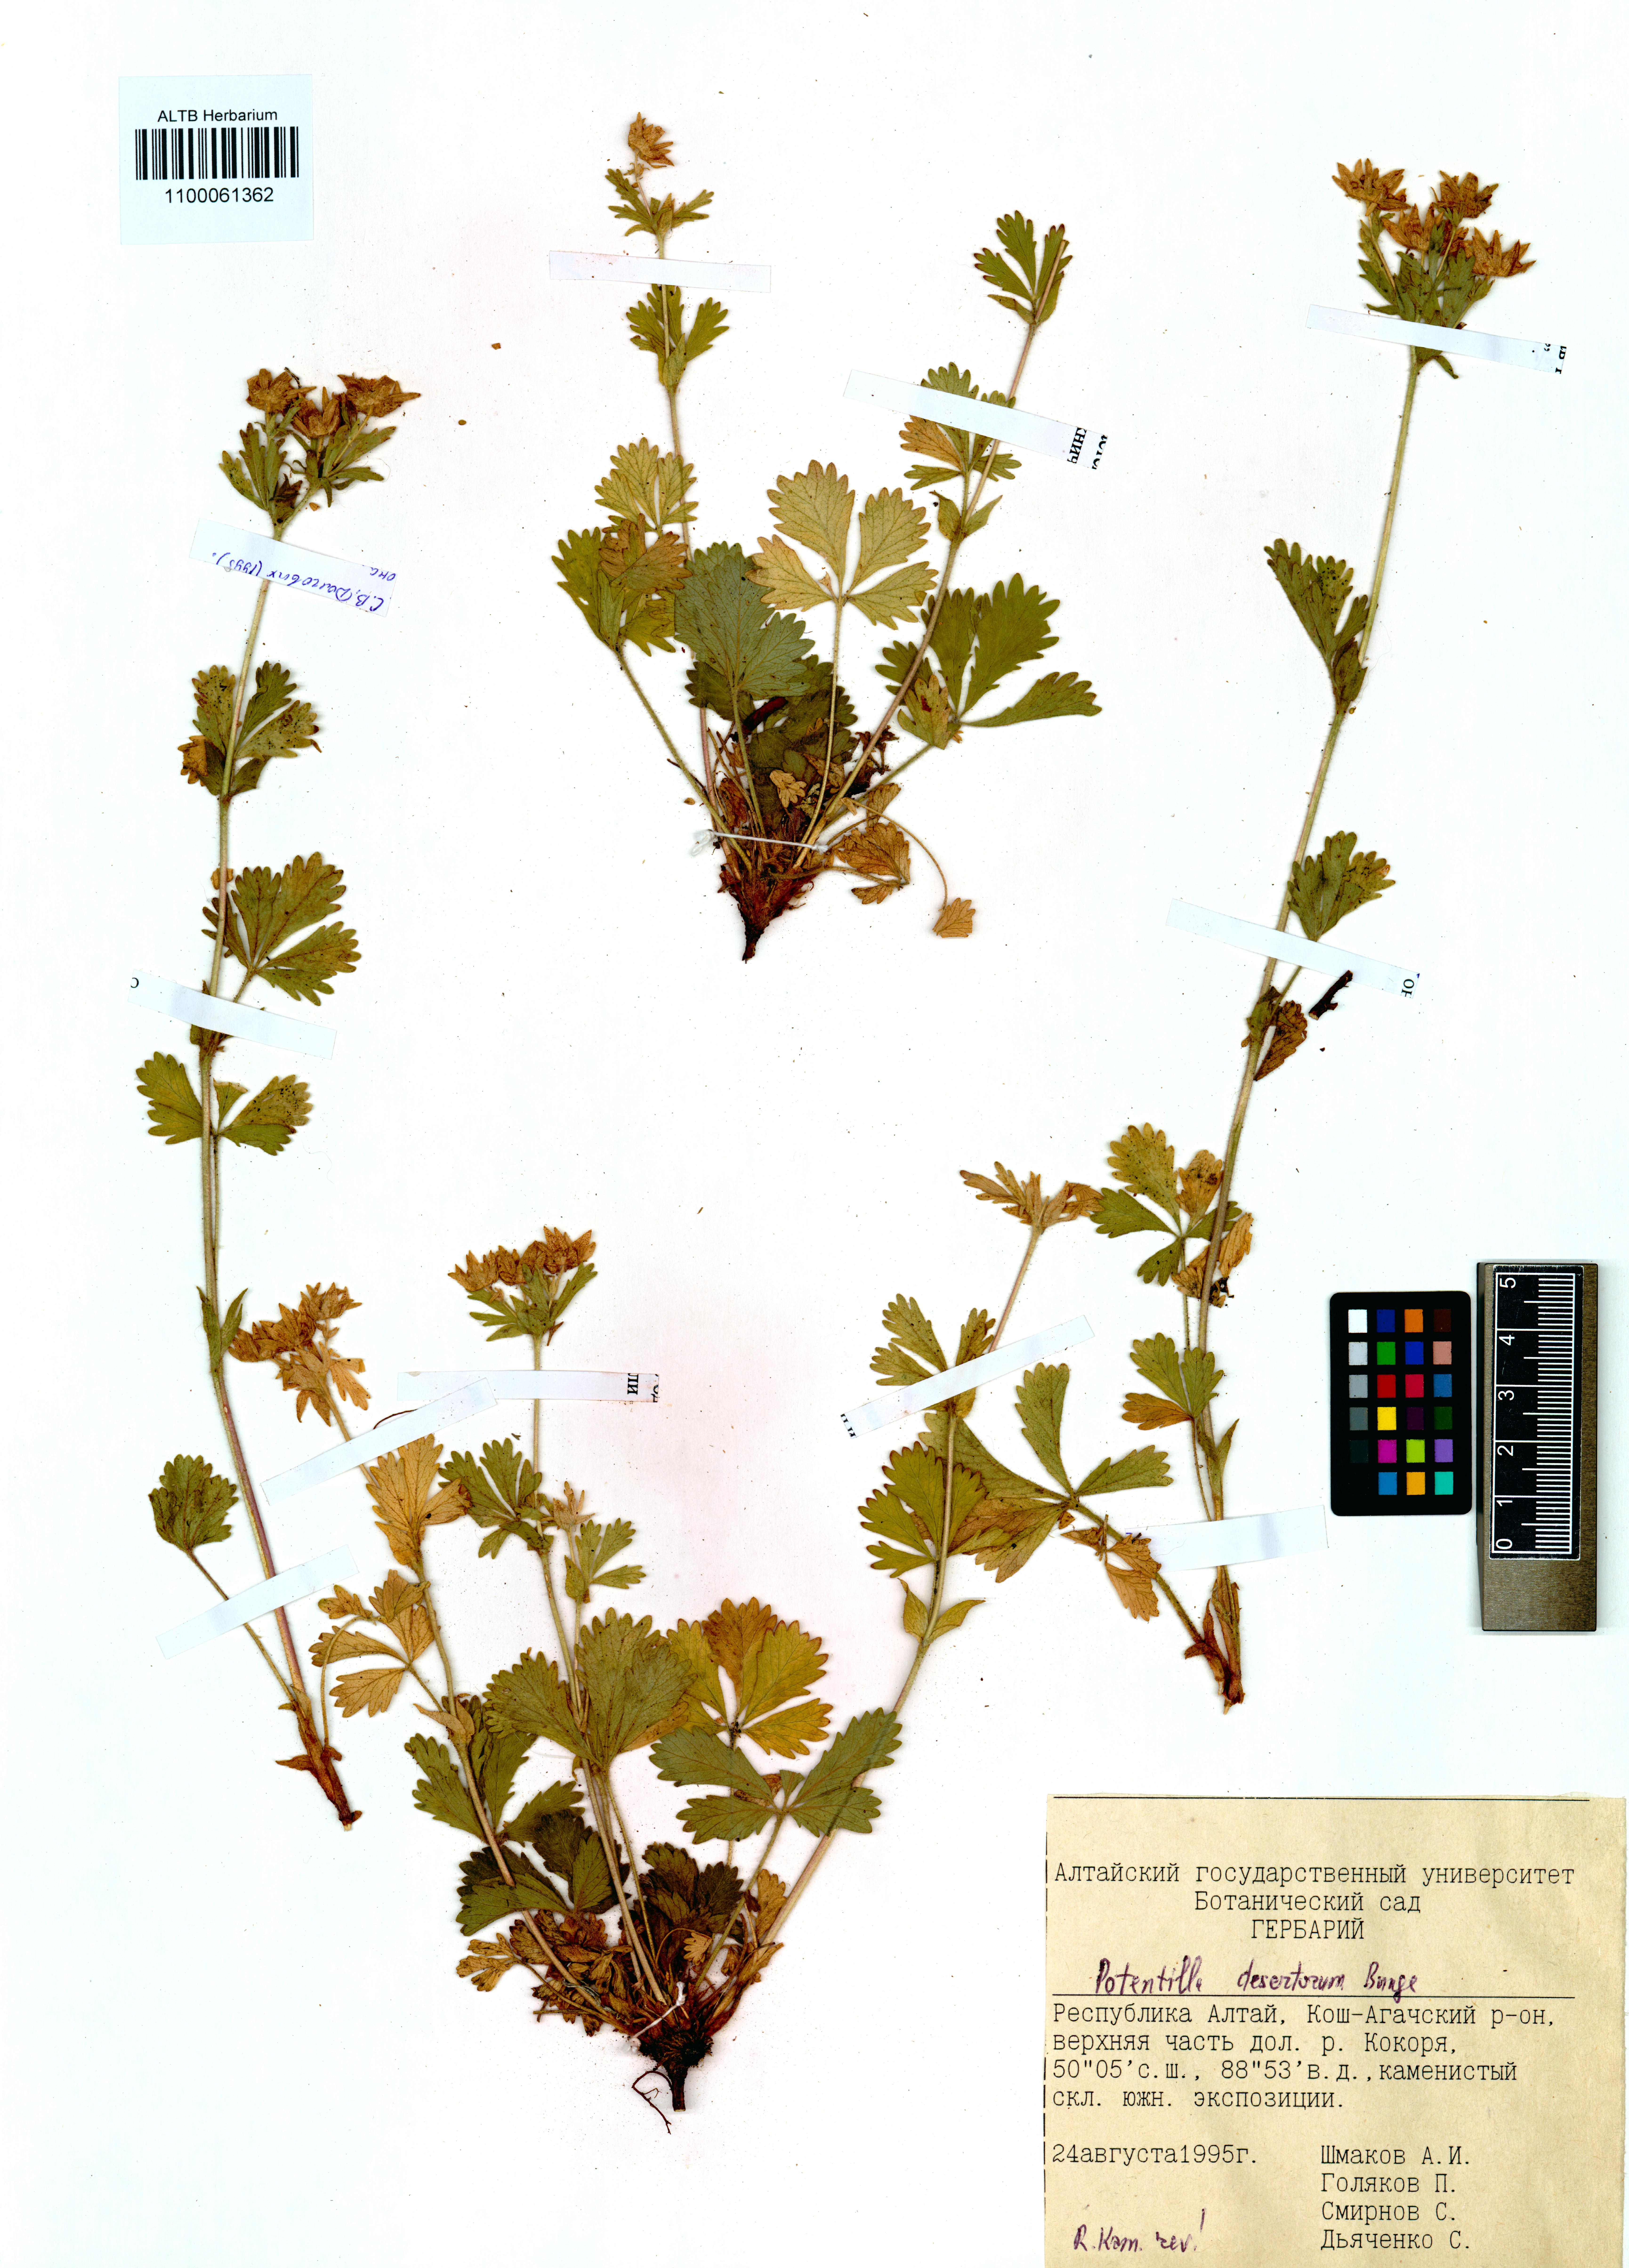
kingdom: Plantae
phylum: Tracheophyta
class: Magnoliopsida
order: Rosales
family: Rosaceae
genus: Potentilla
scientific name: Potentilla desertorum
